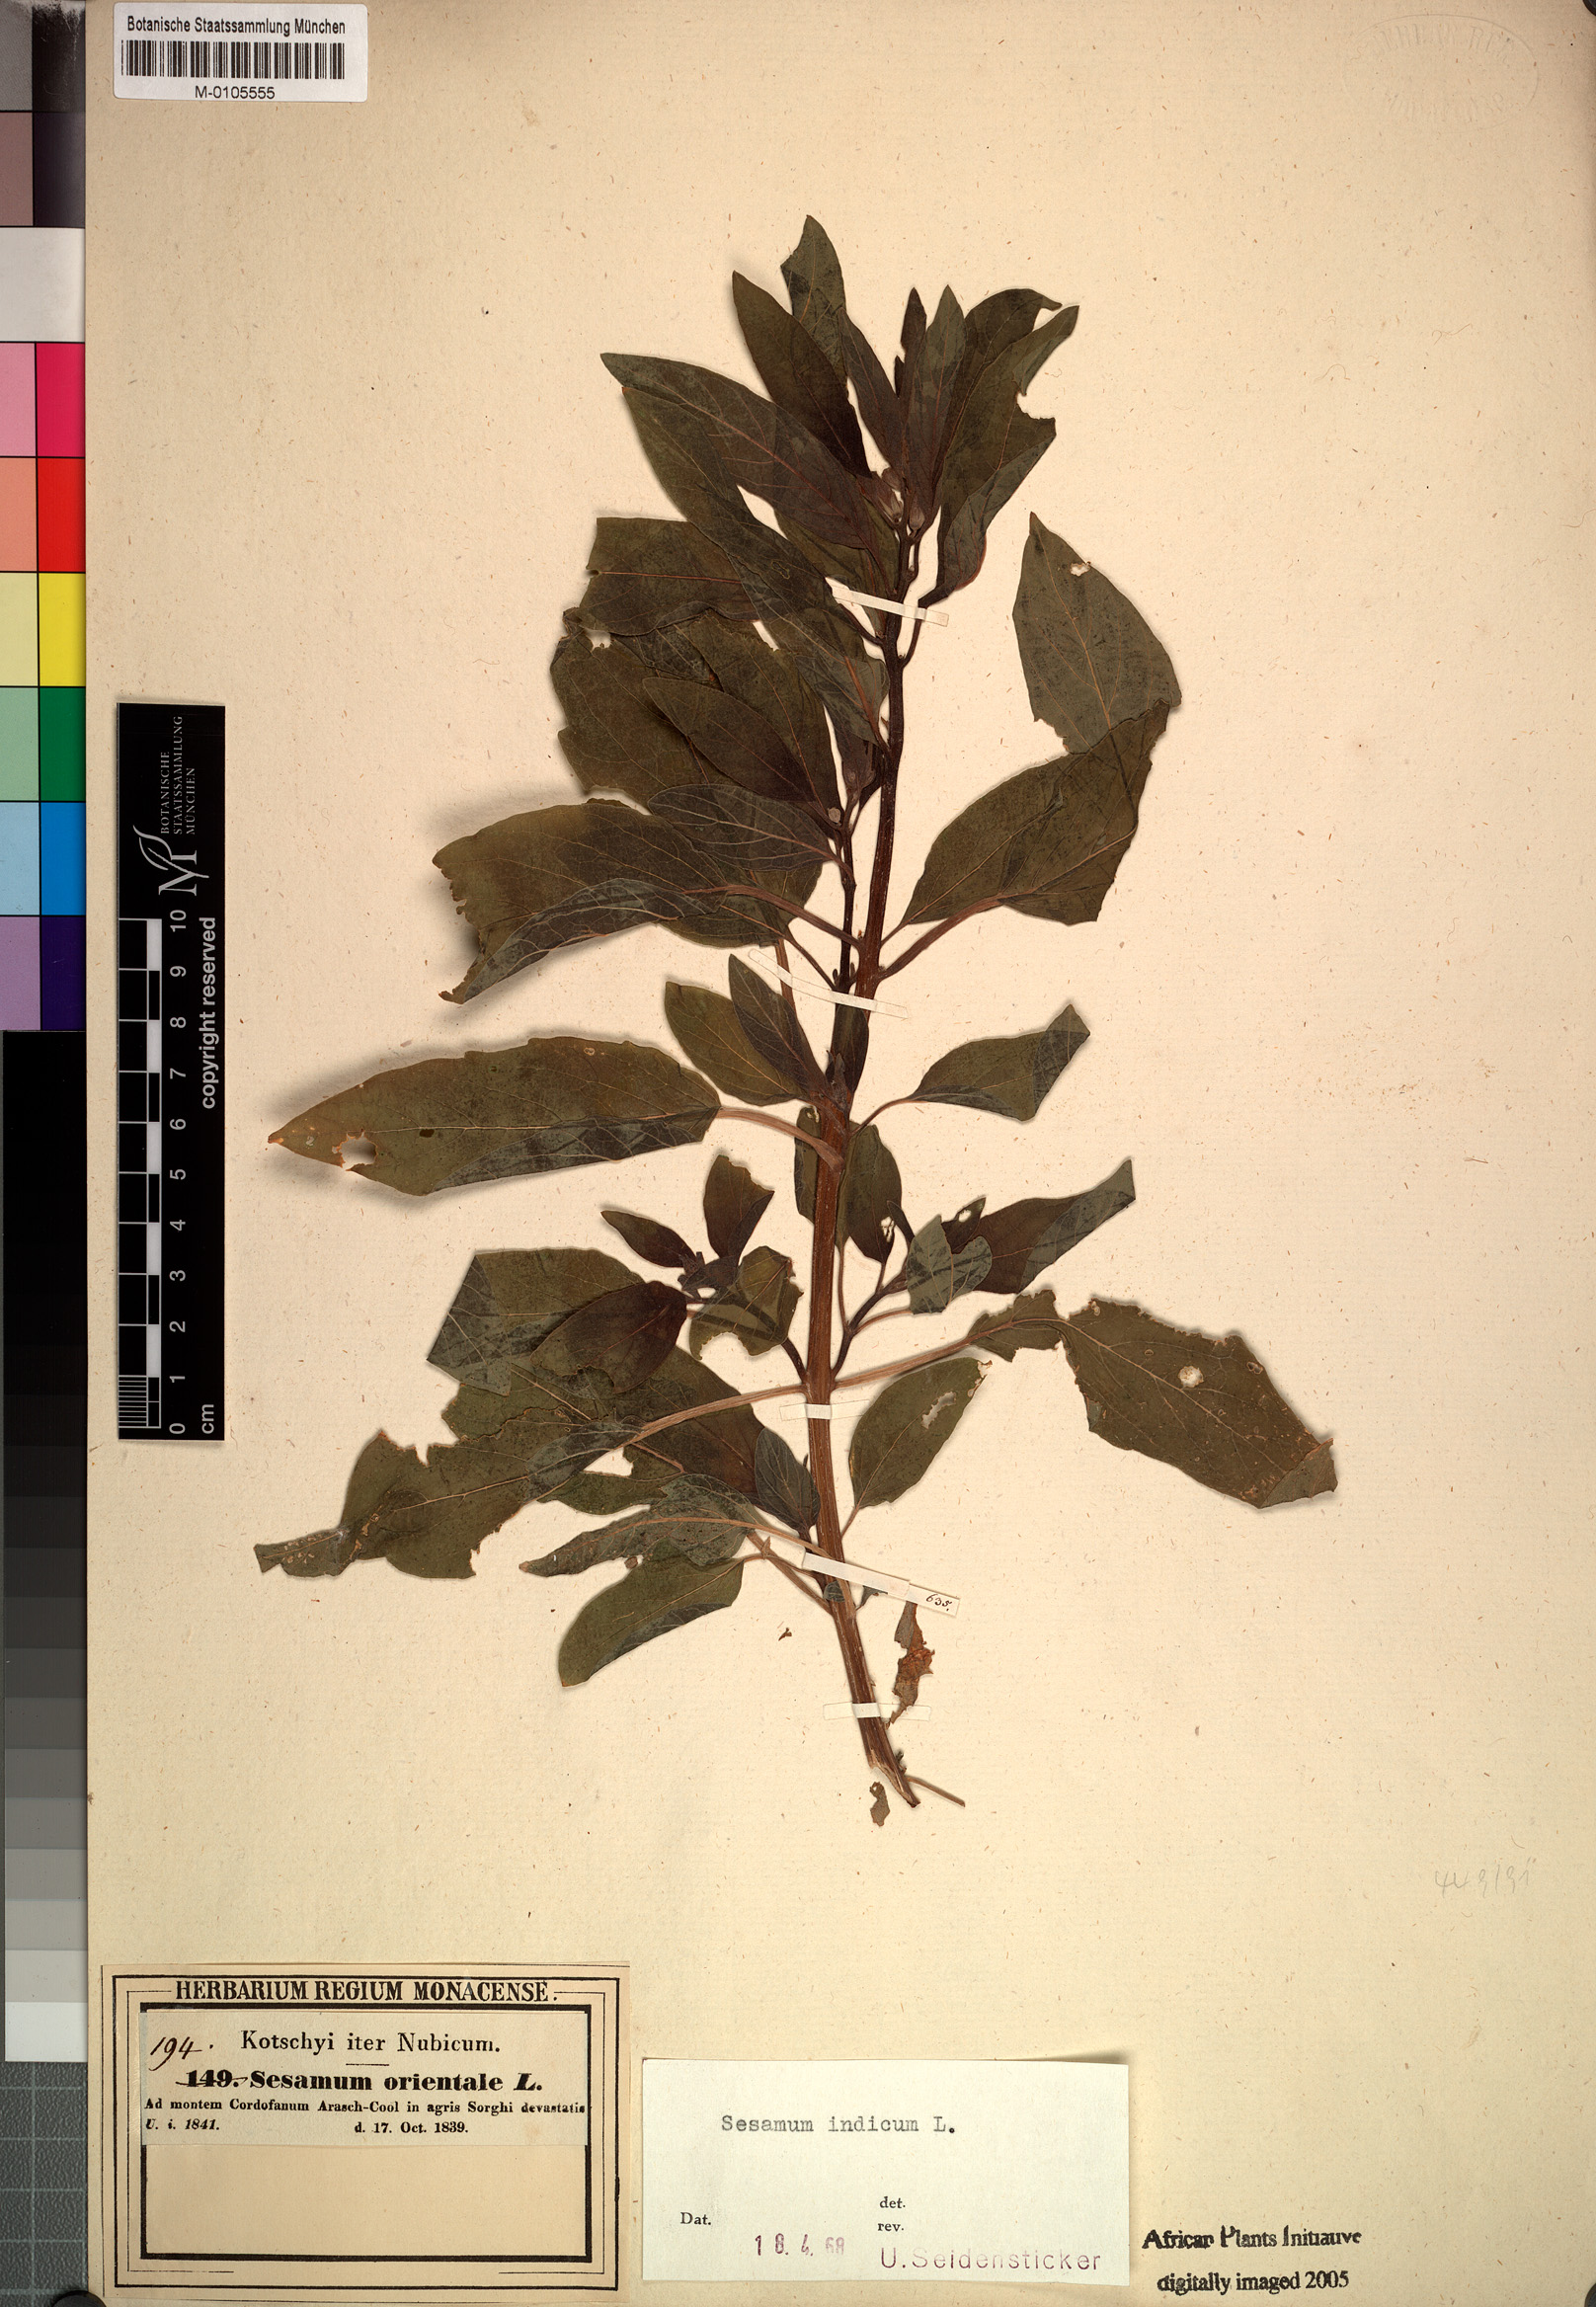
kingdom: Plantae
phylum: Tracheophyta
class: Magnoliopsida
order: Lamiales
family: Pedaliaceae
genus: Sesamum
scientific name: Sesamum indicum
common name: Sesame
